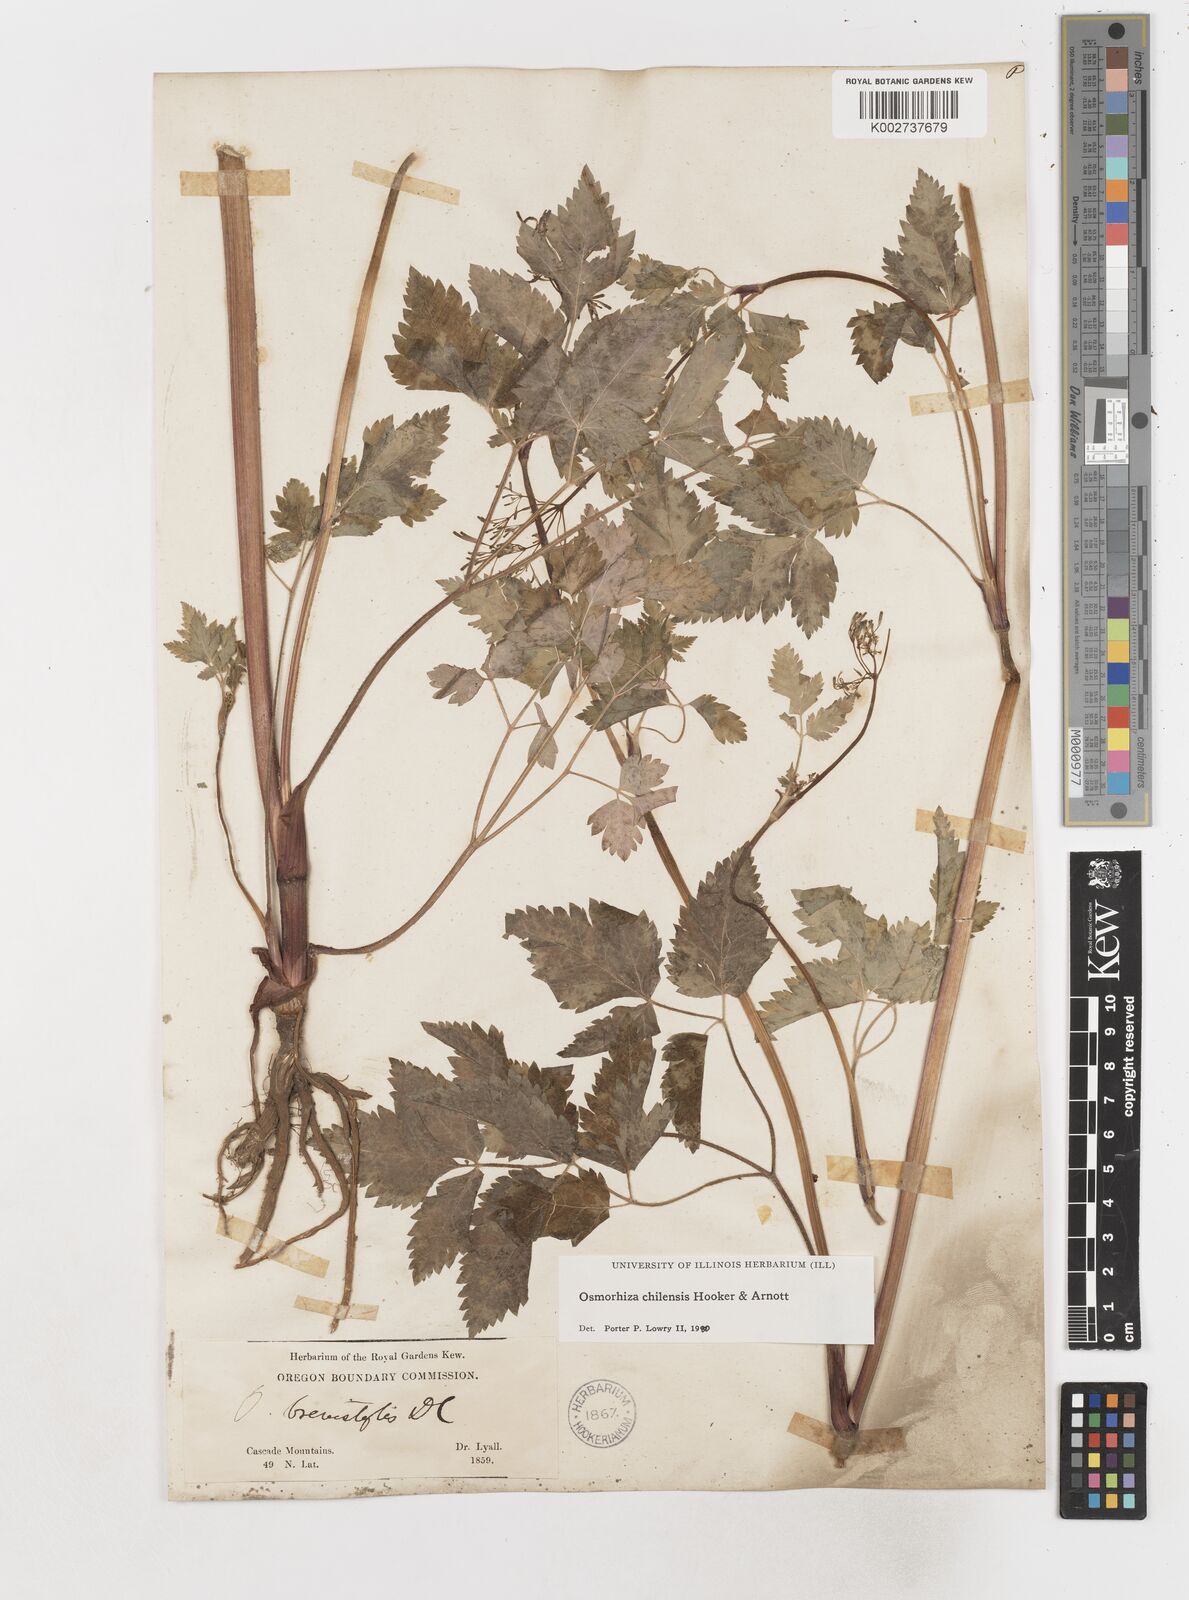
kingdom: Plantae
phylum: Tracheophyta
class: Magnoliopsida
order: Apiales
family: Apiaceae
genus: Osmorhiza
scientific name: Osmorhiza berteroi
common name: Mountain sweet cicely
